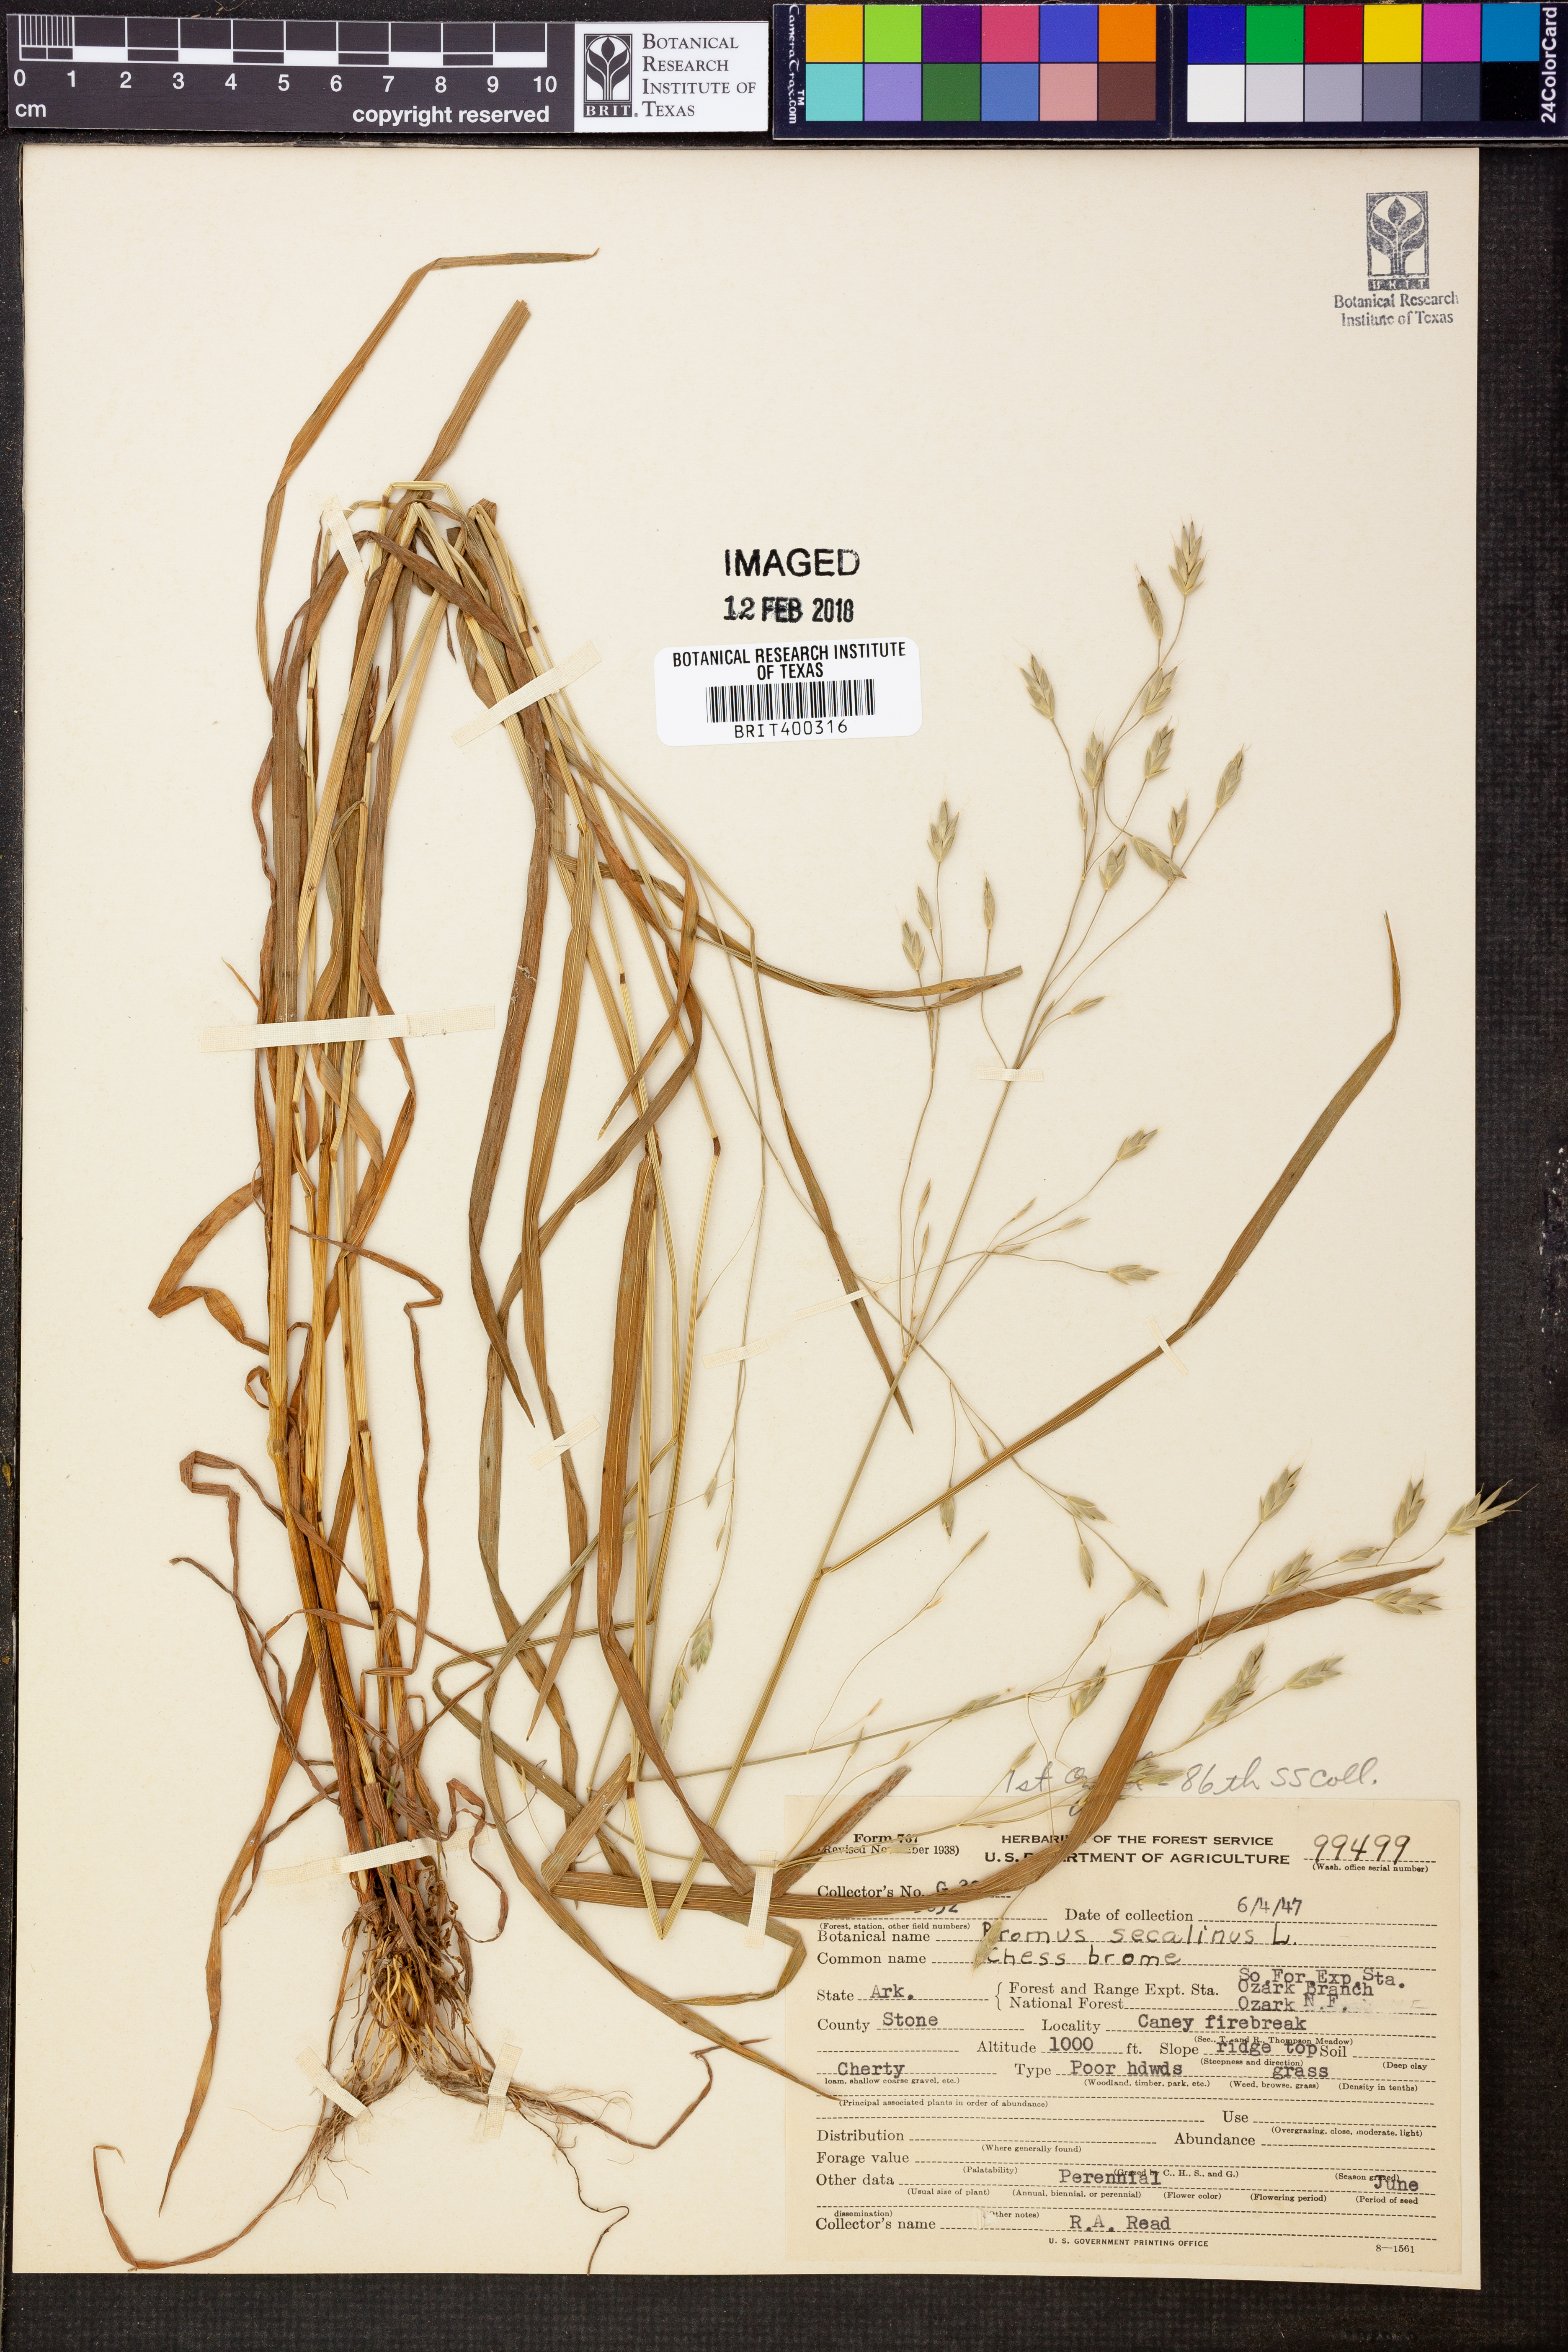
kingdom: Plantae
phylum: Tracheophyta
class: Liliopsida
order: Poales
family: Poaceae
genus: Bromus
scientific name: Bromus secalinus
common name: Rye brome
